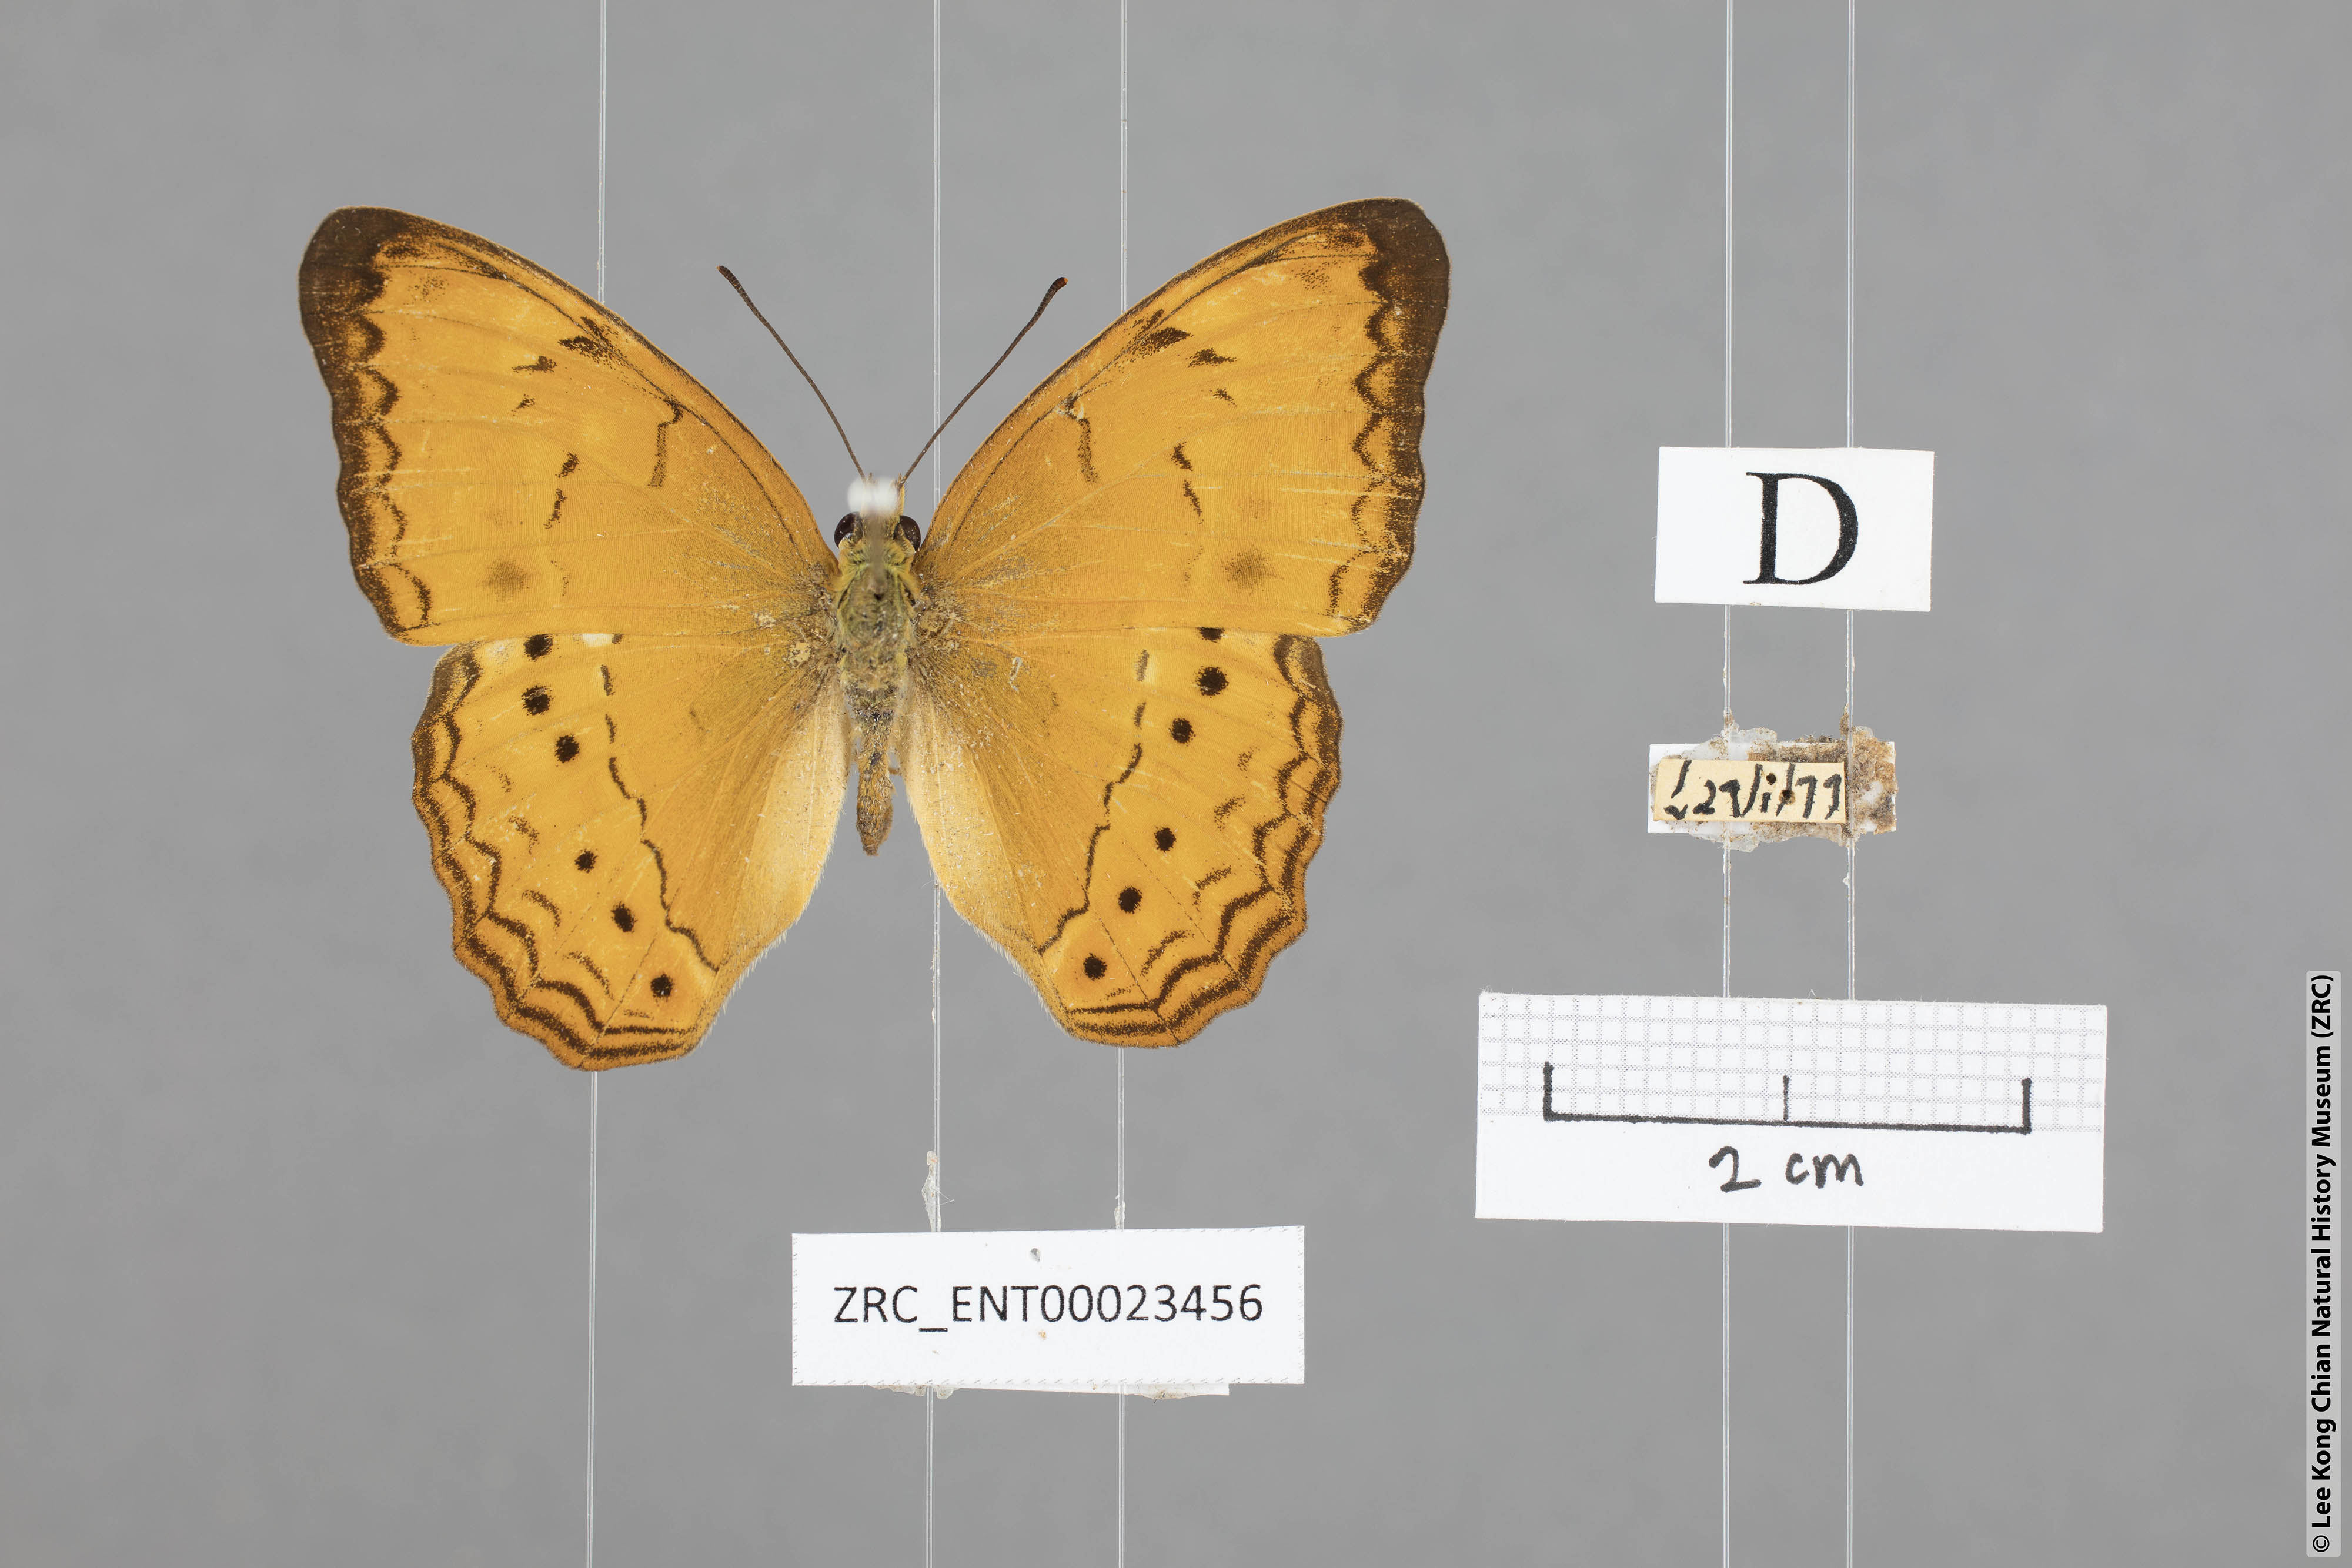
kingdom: Animalia
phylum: Arthropoda
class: Insecta
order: Lepidoptera
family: Nymphalidae
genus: Cirrochroa
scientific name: Cirrochroa surya
